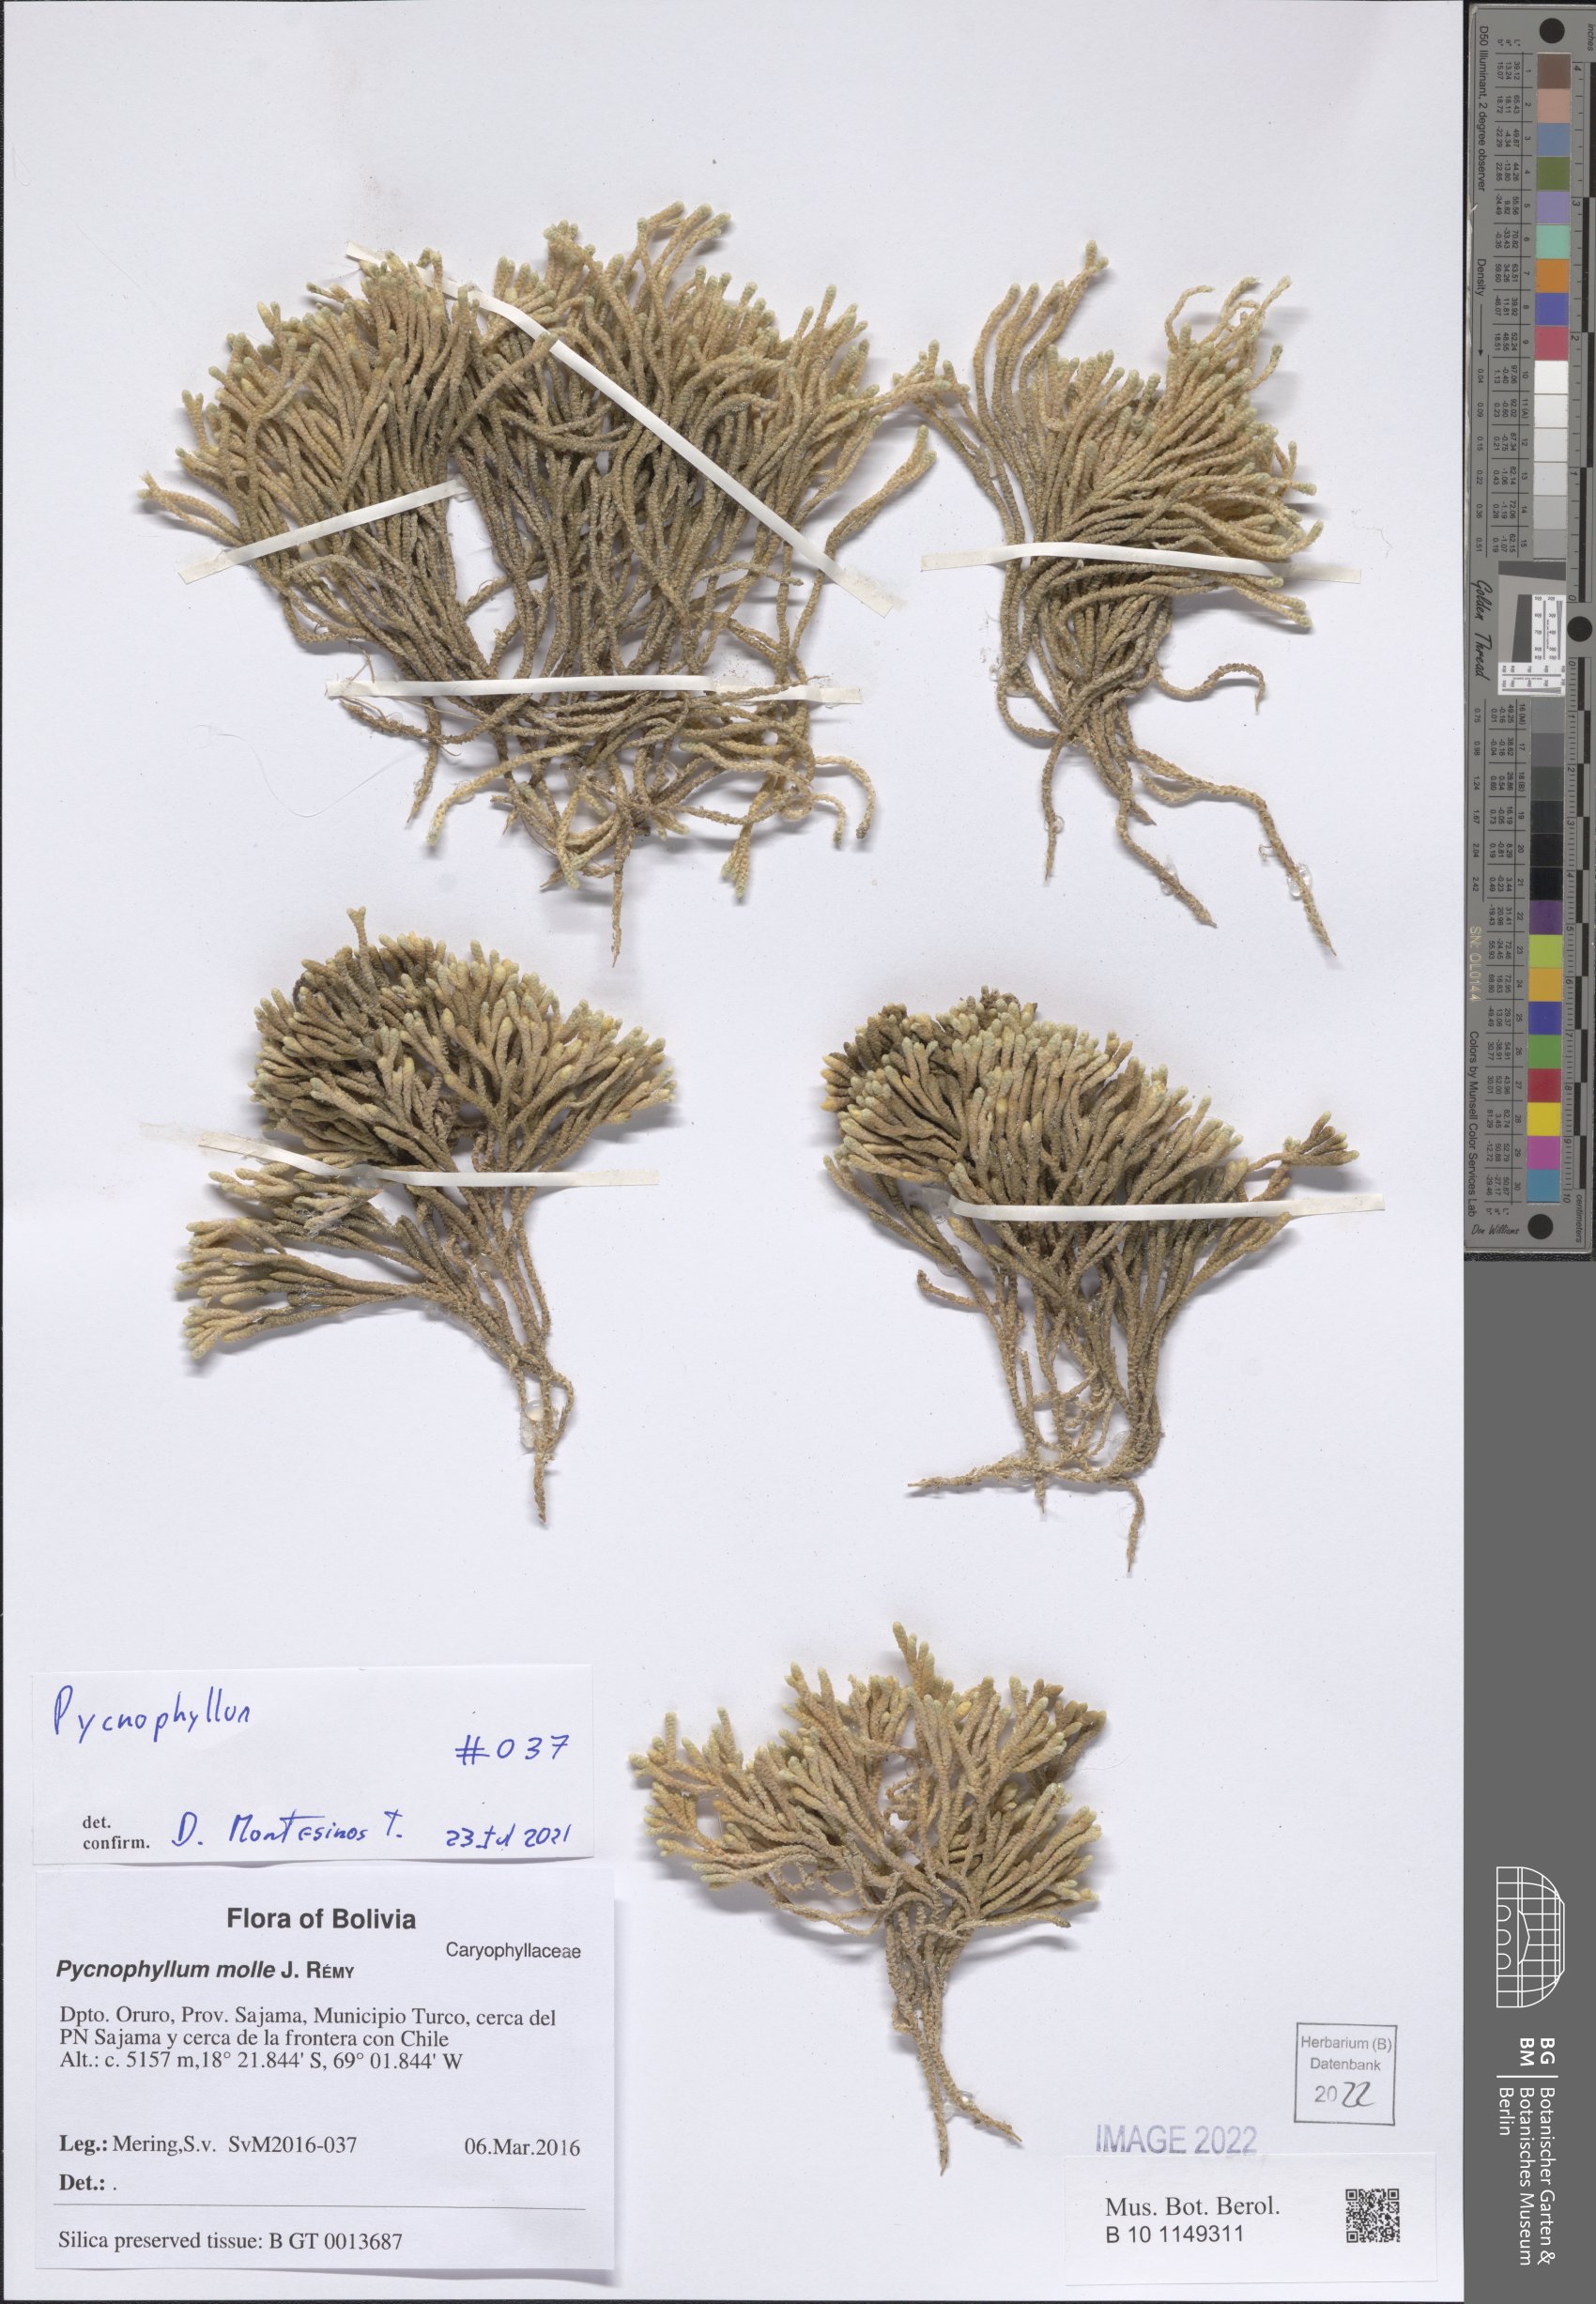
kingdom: Plantae
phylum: Tracheophyta
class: Magnoliopsida
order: Caryophyllales
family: Caryophyllaceae
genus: Pycnophyllum
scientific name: Pycnophyllum
